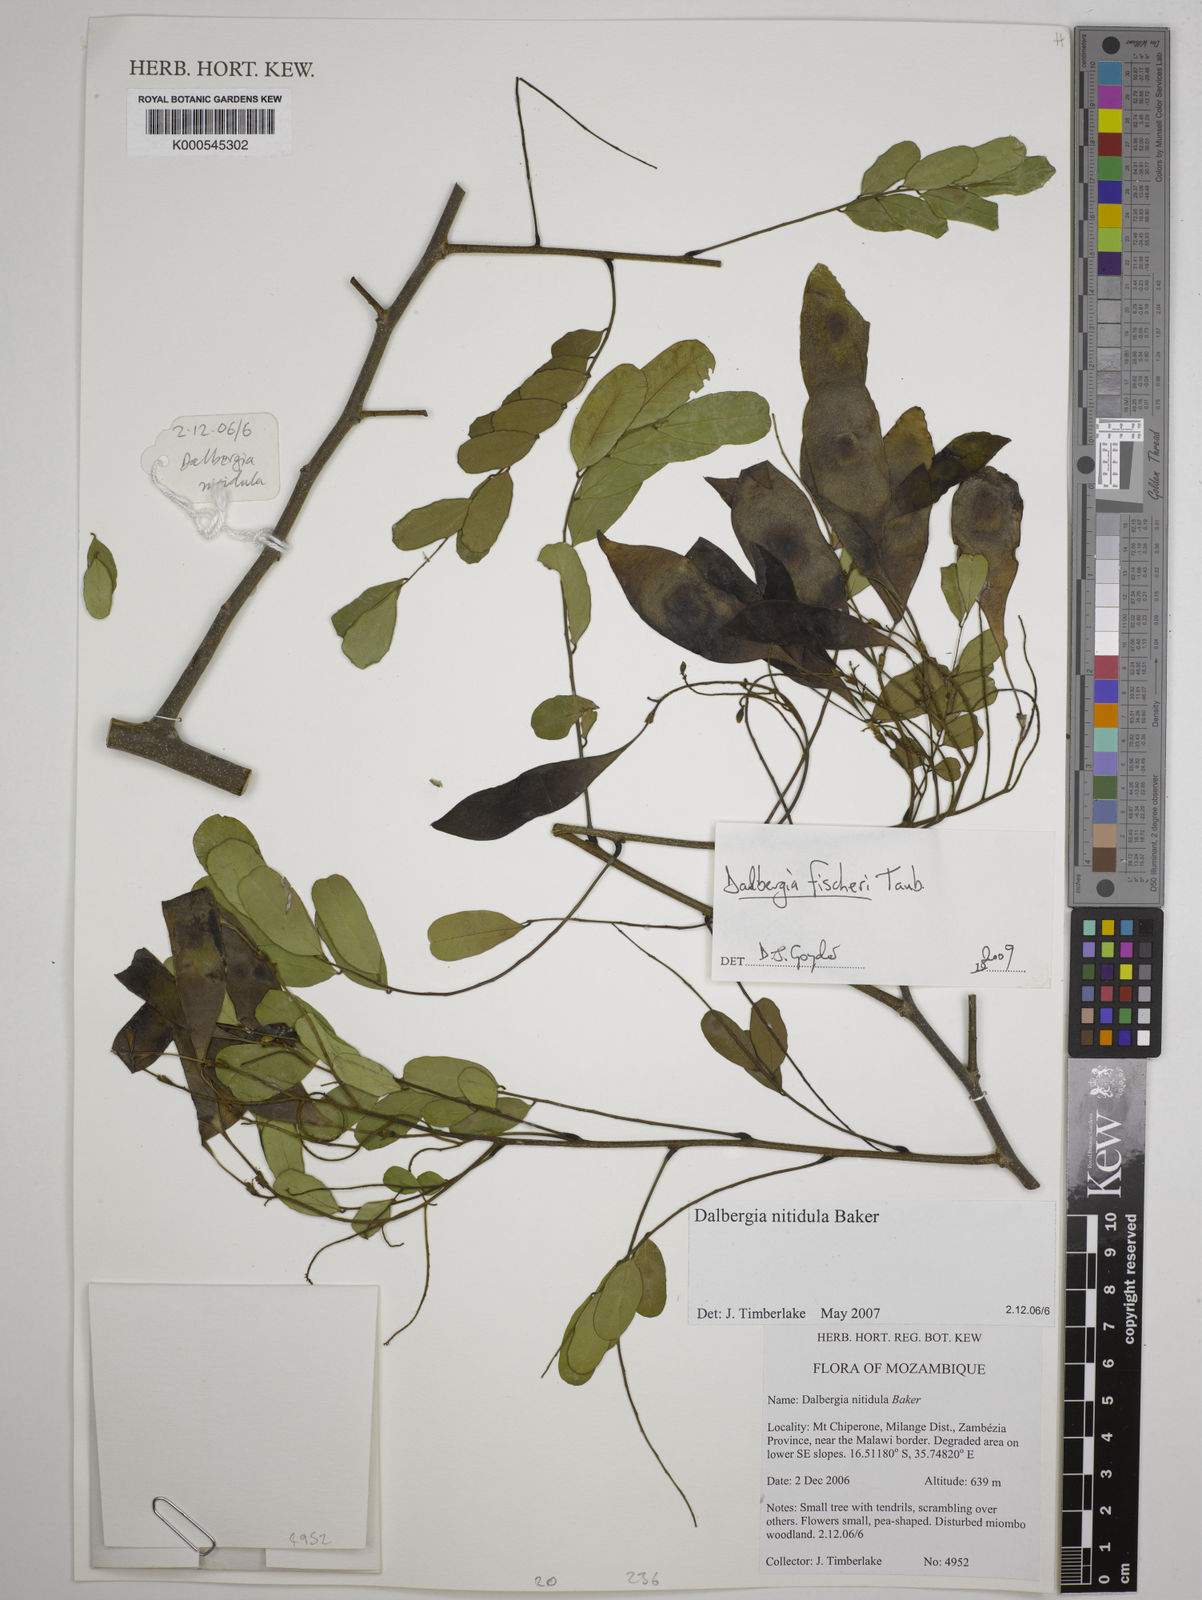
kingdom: Plantae
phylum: Tracheophyta
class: Magnoliopsida
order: Fabales
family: Fabaceae
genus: Dalbergia
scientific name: Dalbergia nitidula
